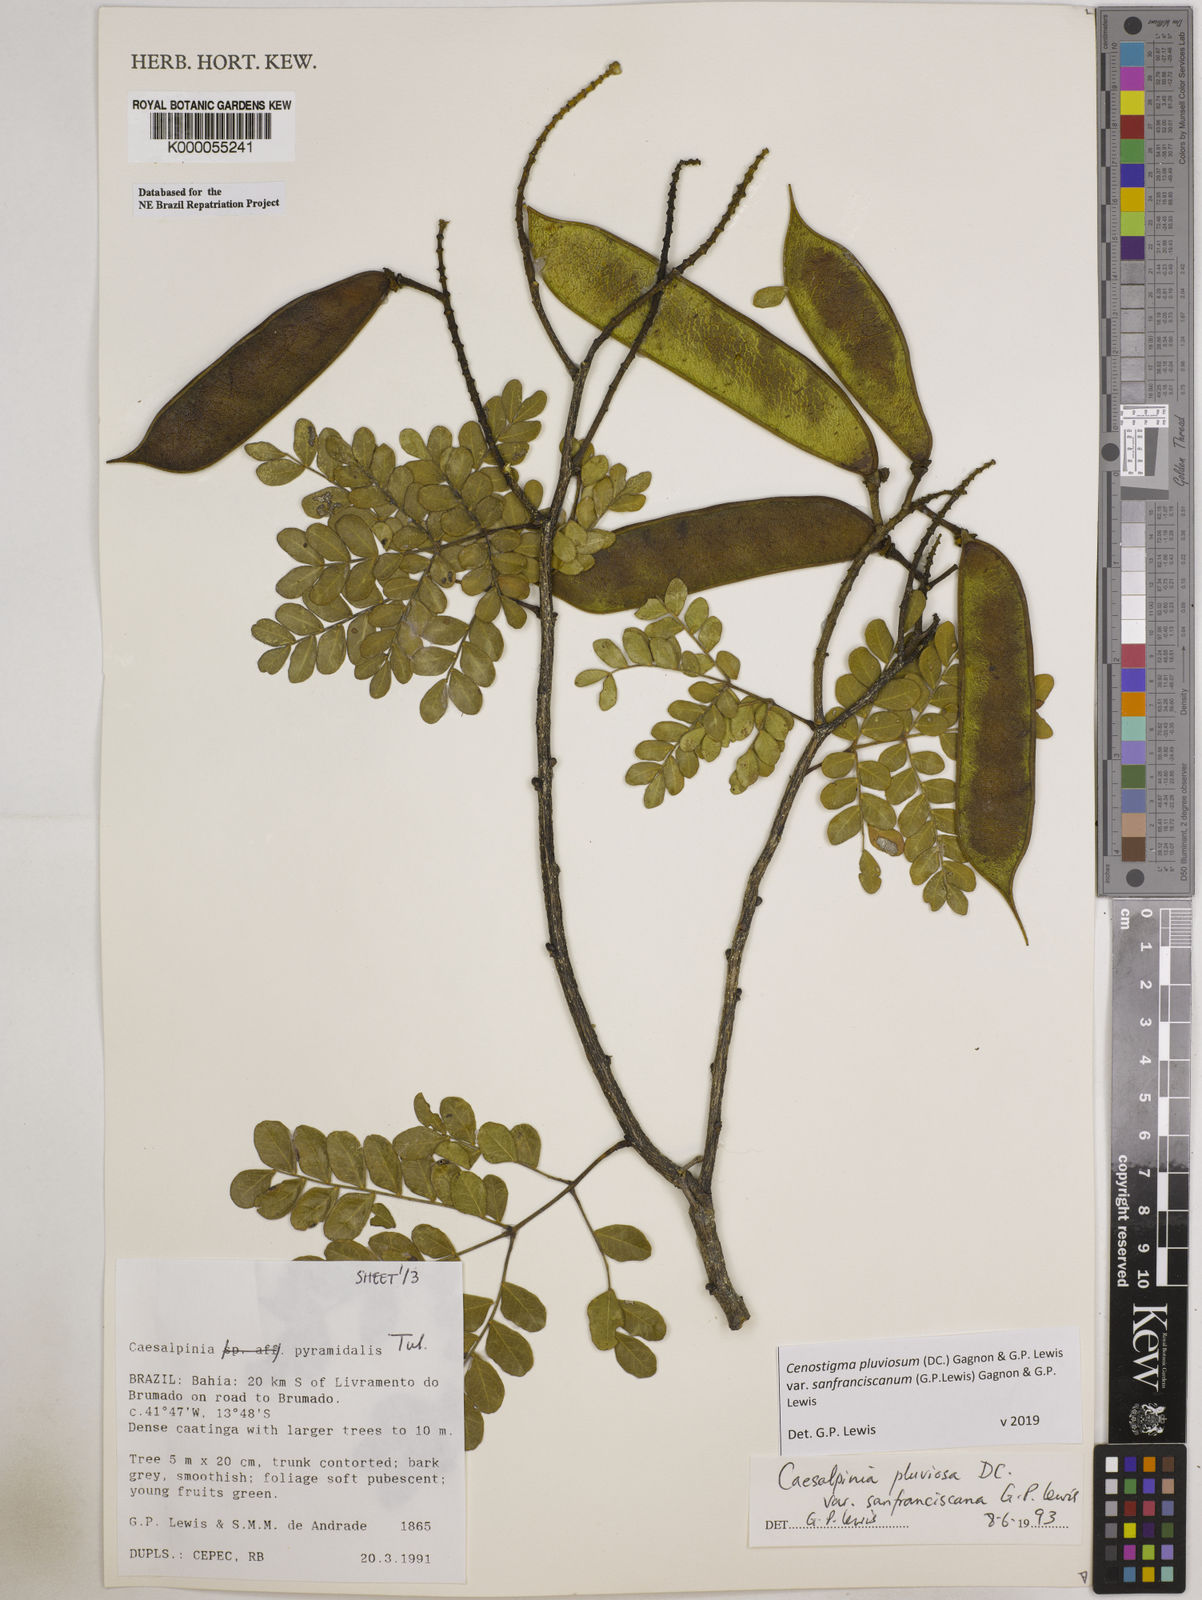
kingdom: Plantae
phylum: Tracheophyta
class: Magnoliopsida
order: Fabales
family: Fabaceae
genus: Cenostigma
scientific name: Cenostigma pluviosum
